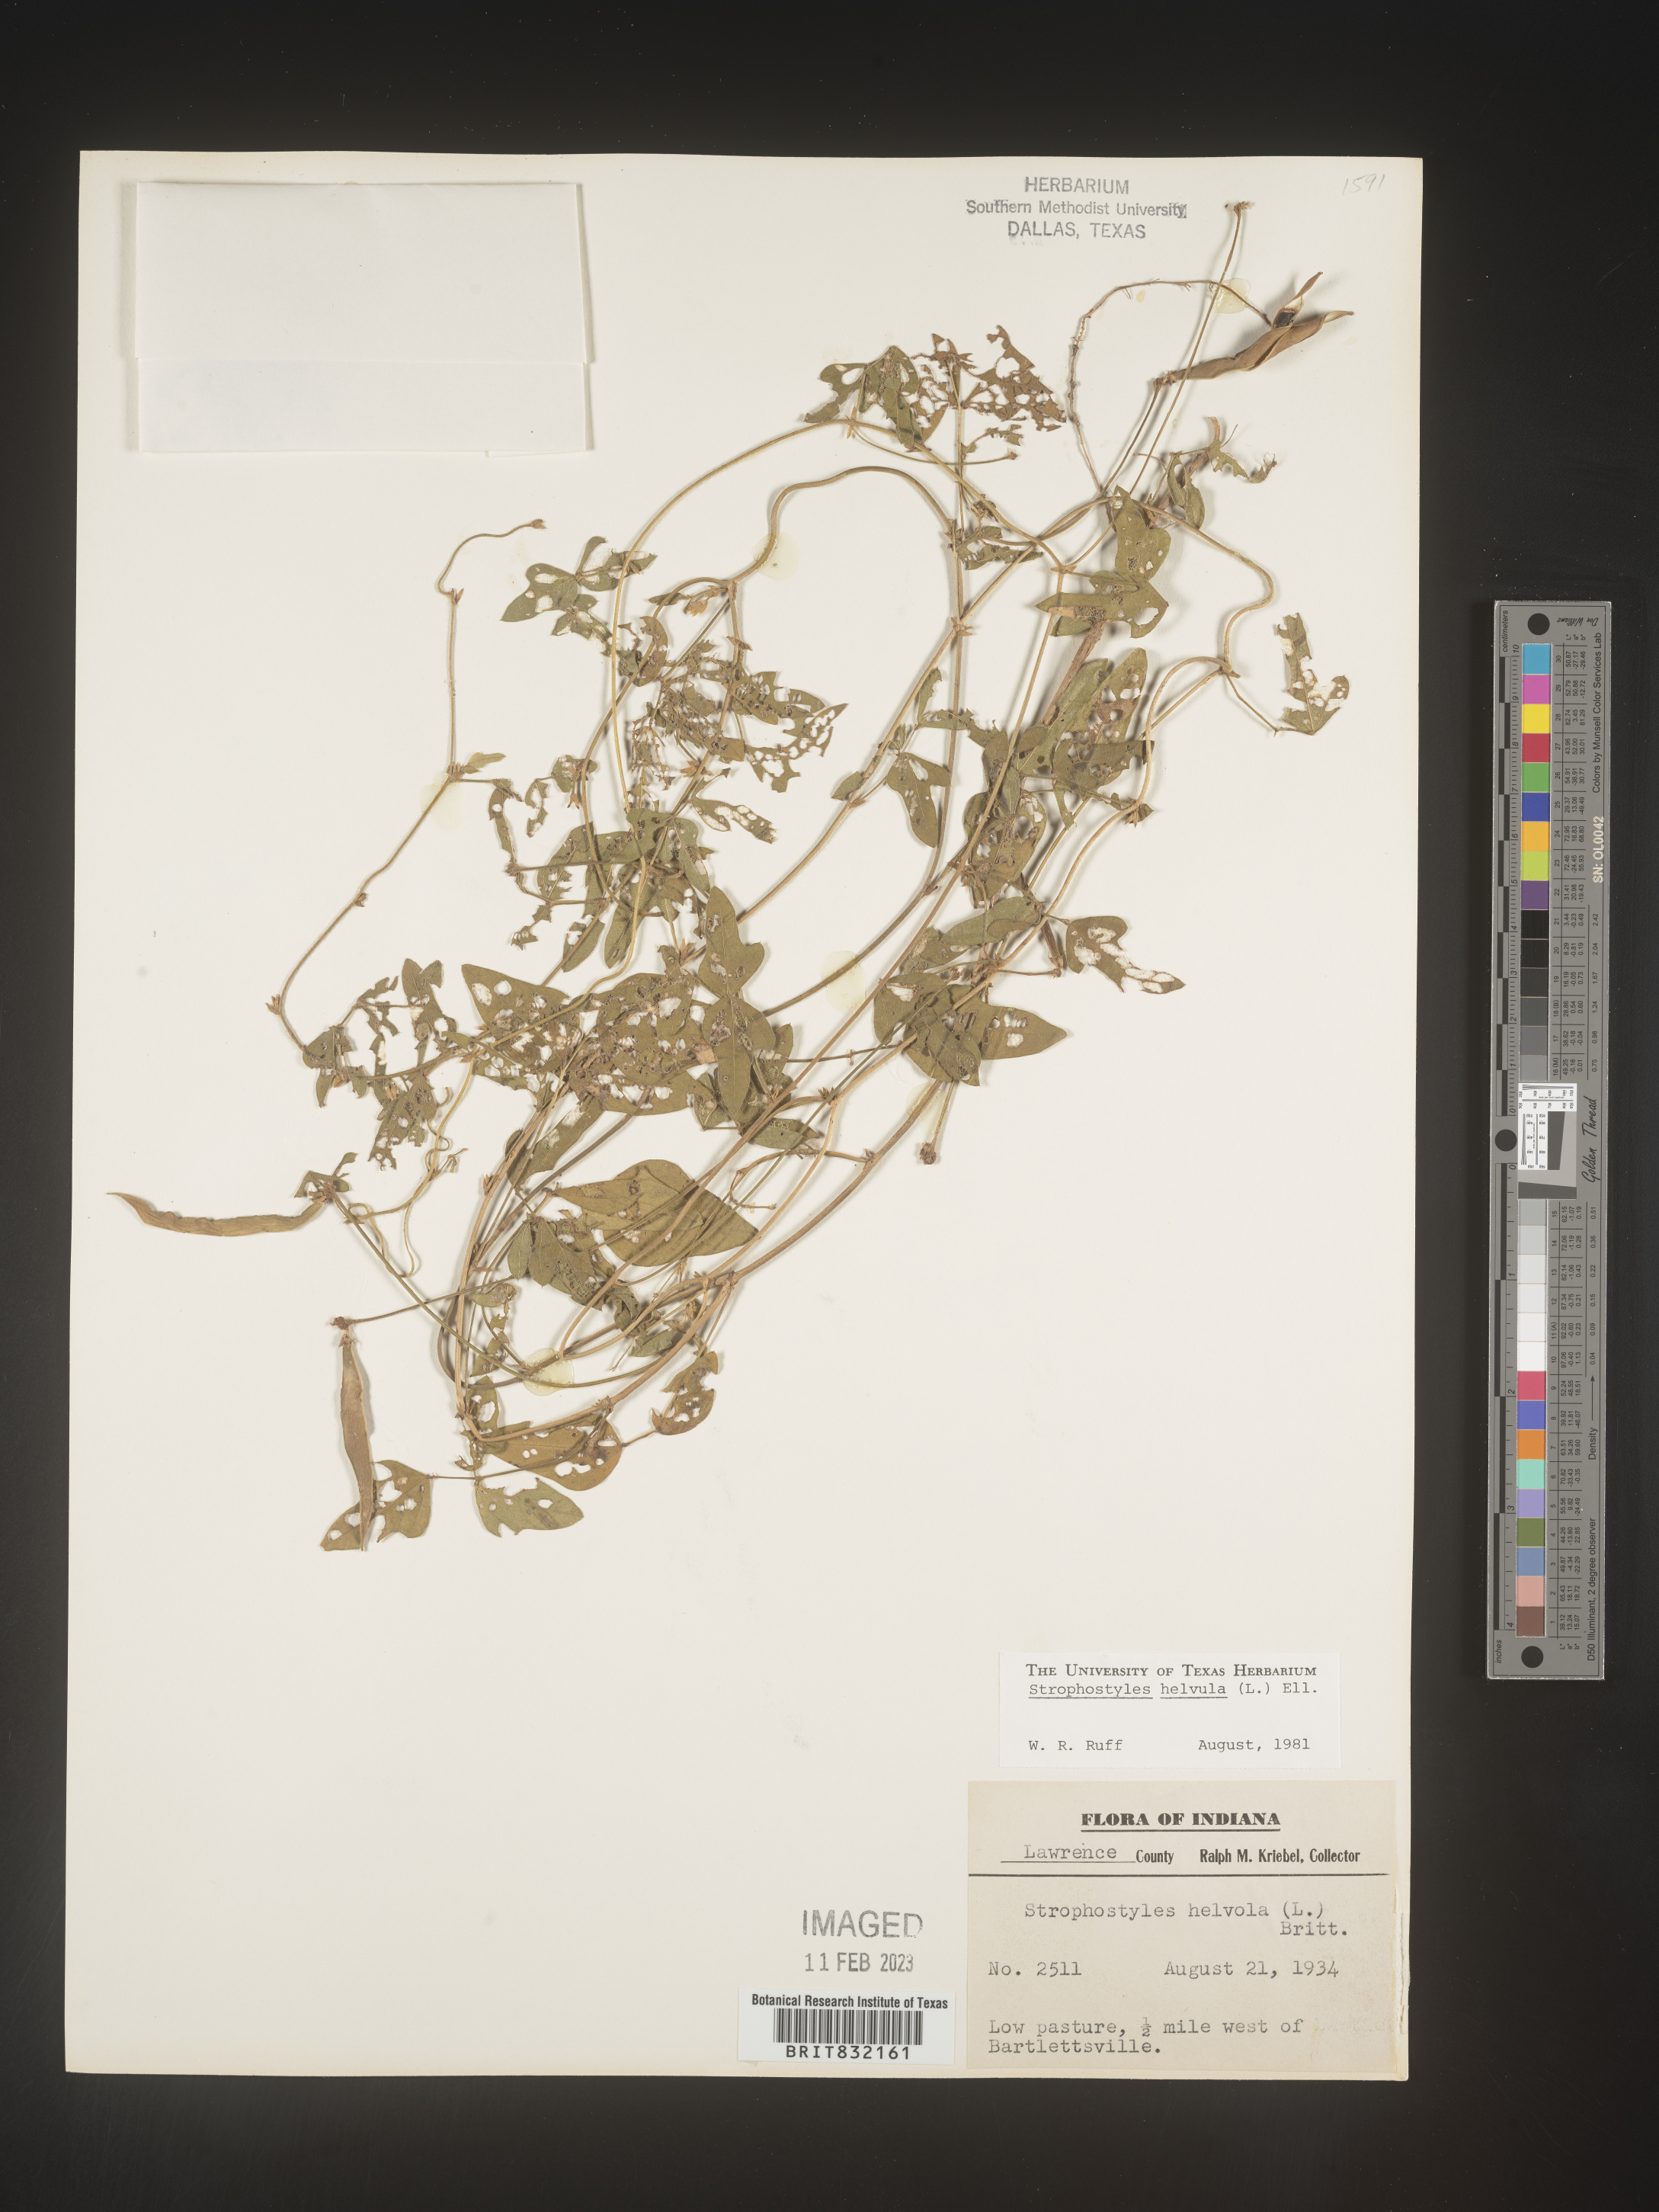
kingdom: Plantae
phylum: Tracheophyta
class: Magnoliopsida
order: Fabales
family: Fabaceae
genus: Strophostyles
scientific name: Strophostyles helvola
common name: Trailing wild bean
